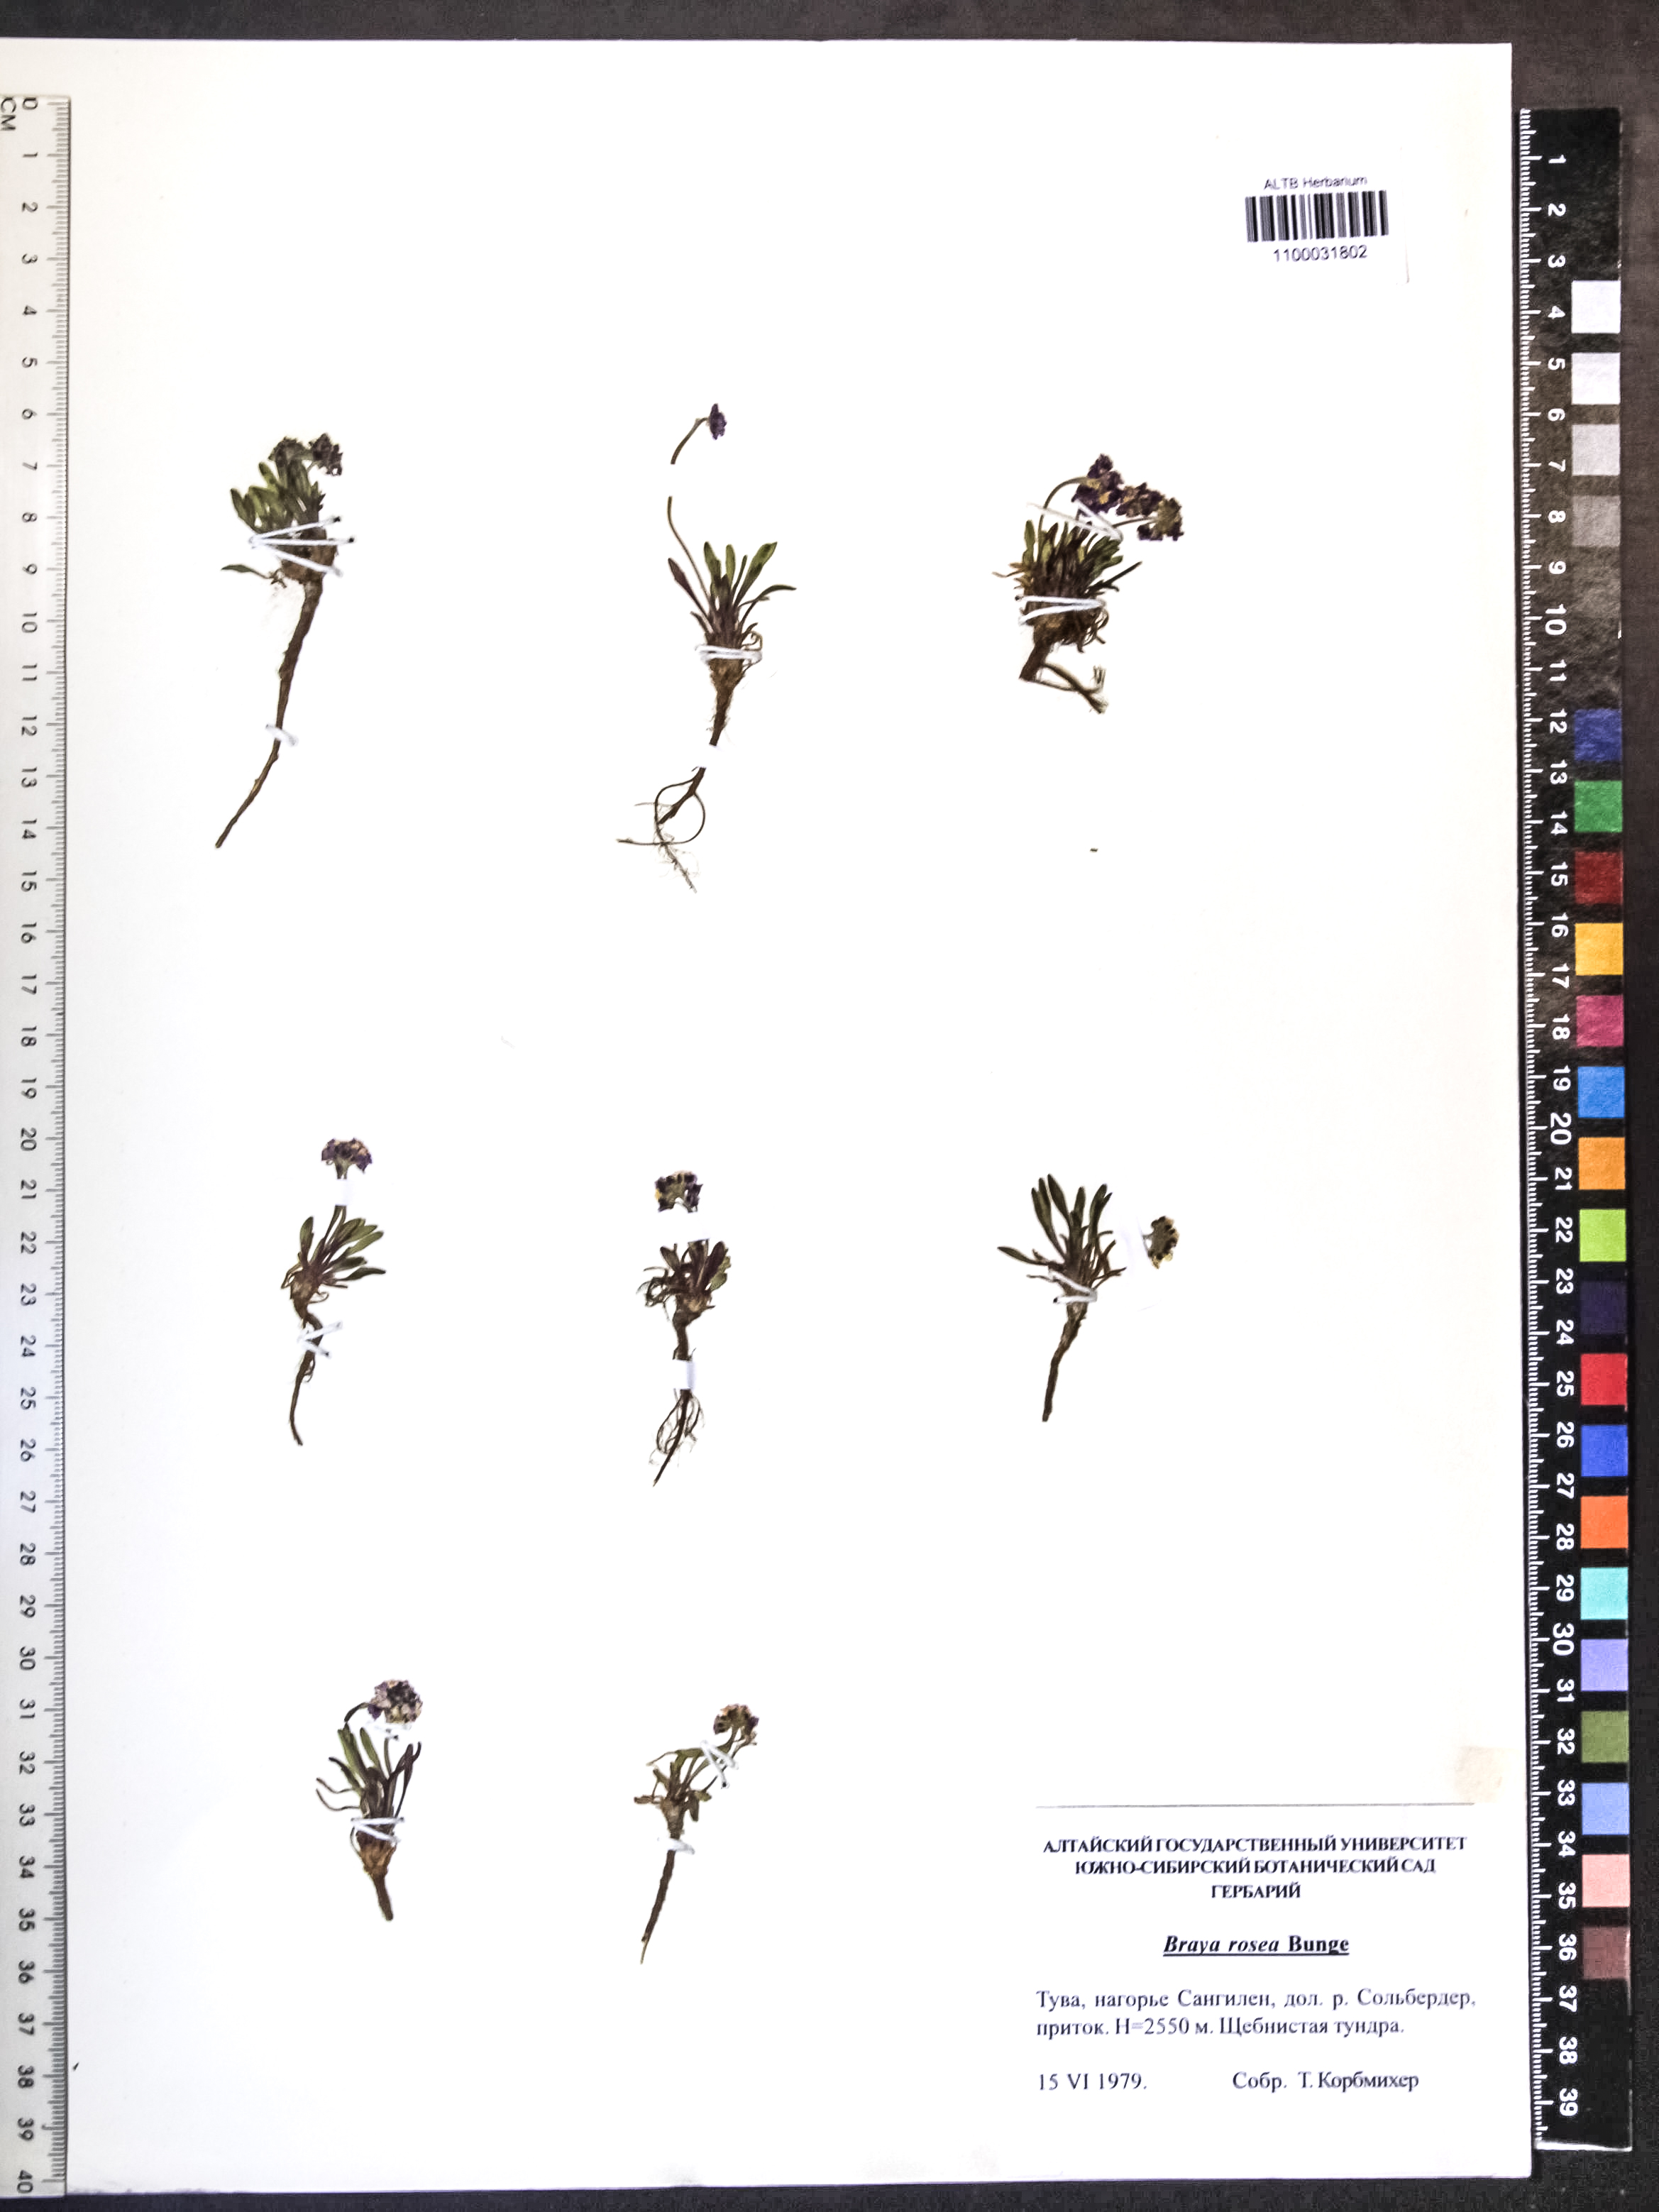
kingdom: Plantae
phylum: Tracheophyta
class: Magnoliopsida
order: Brassicales
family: Brassicaceae
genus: Braya
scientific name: Braya rosea
